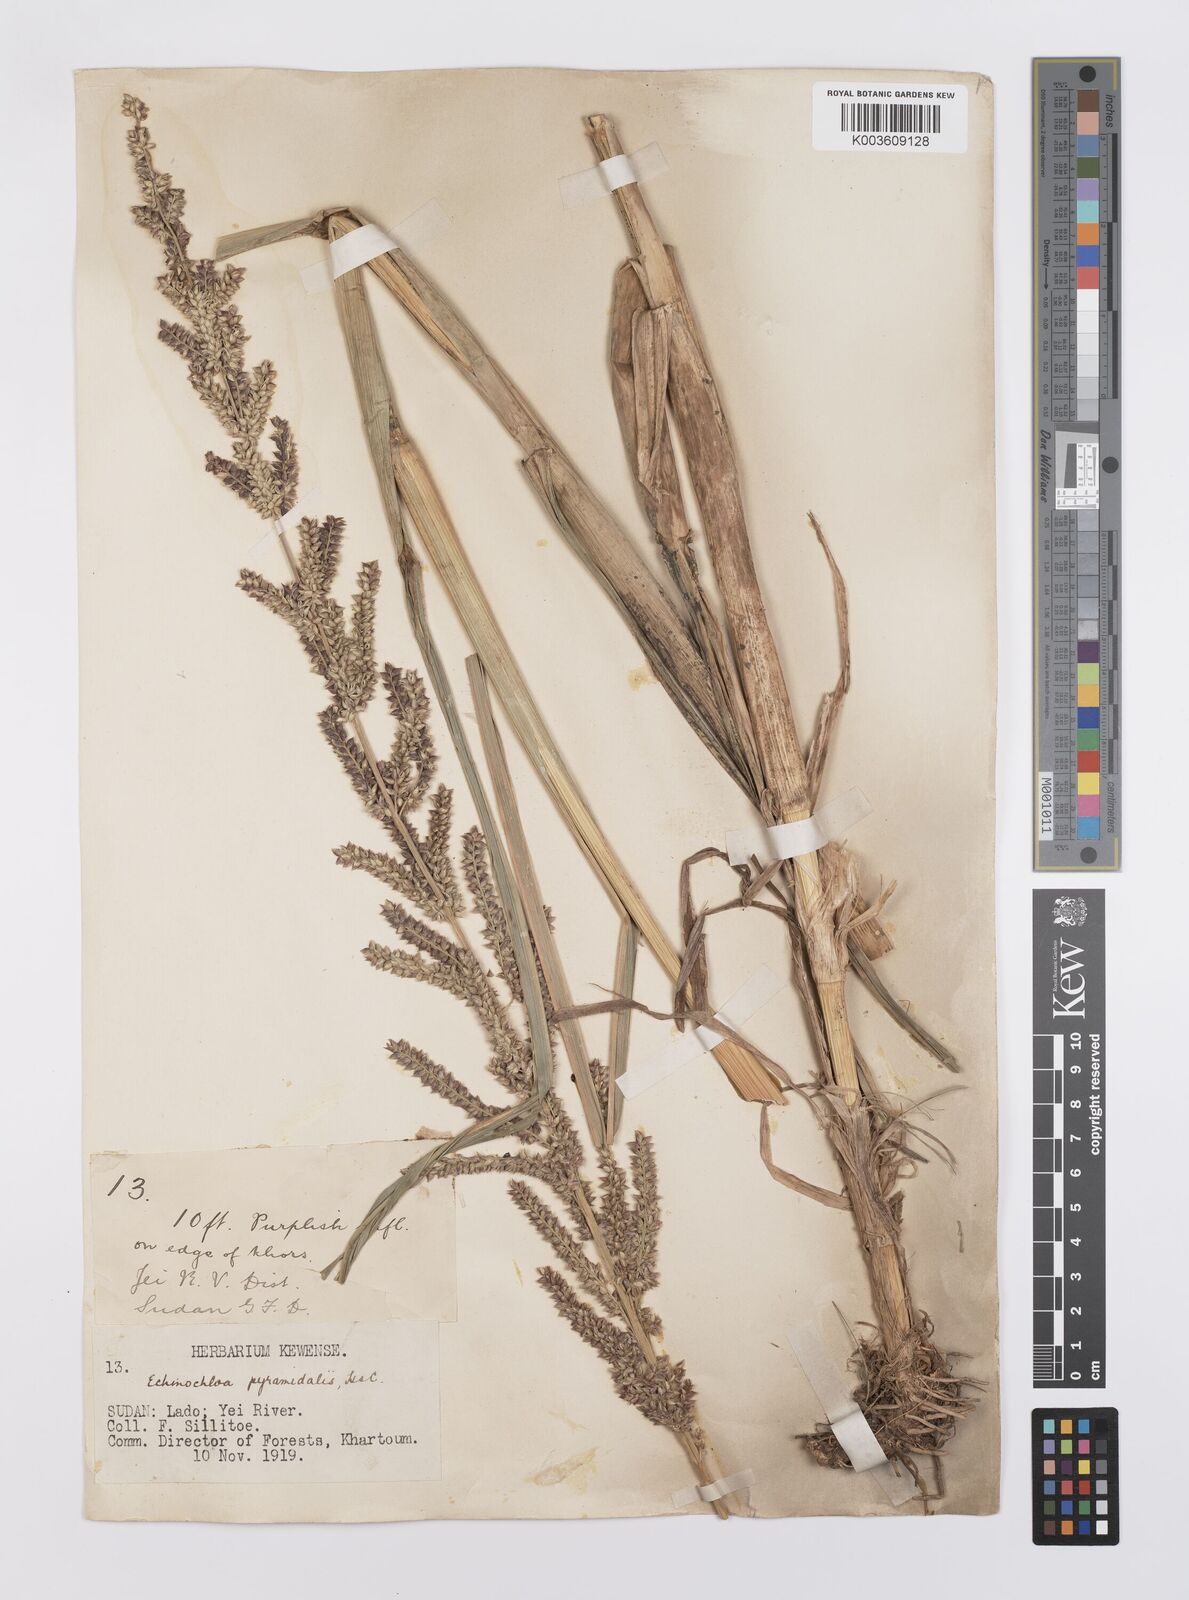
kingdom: Plantae
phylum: Tracheophyta
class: Liliopsida
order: Poales
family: Poaceae
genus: Echinochloa
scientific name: Echinochloa pyramidalis
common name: Antelope grass
